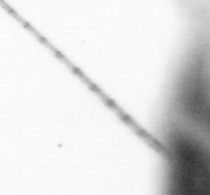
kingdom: Chromista
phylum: Ochrophyta
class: Bacillariophyceae
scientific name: Bacillariophyceae
